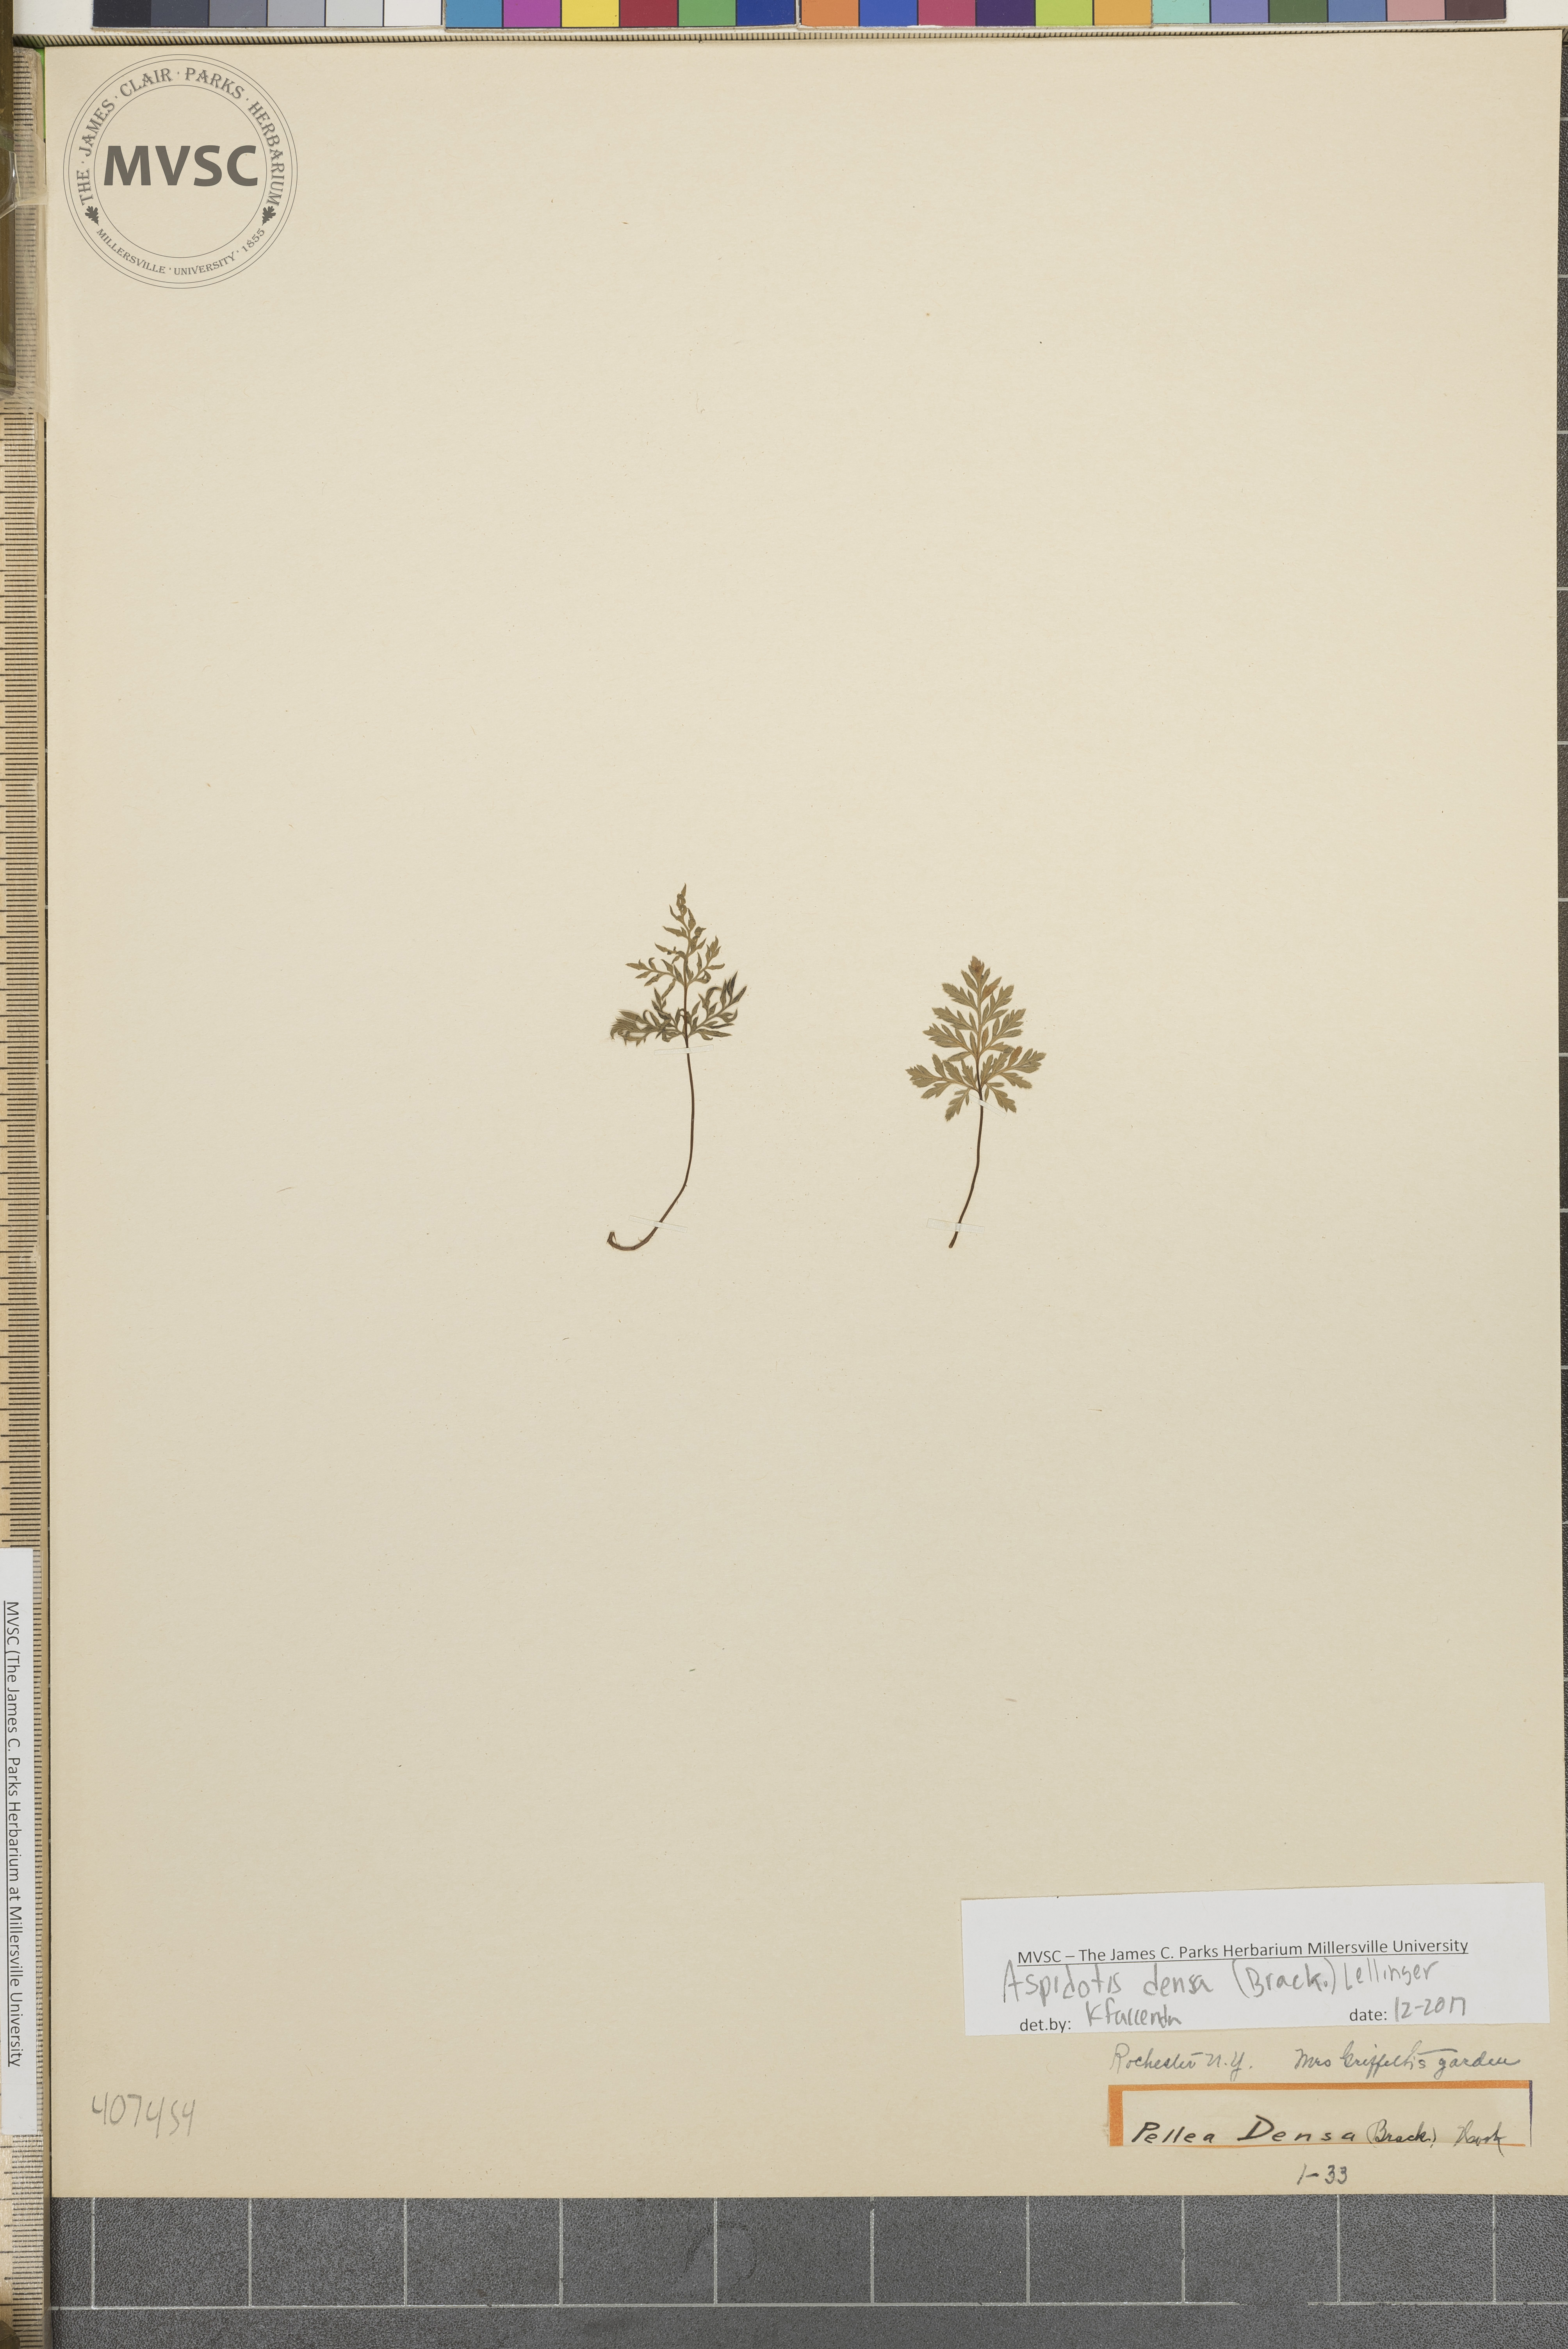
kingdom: Plantae
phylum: Tracheophyta
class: Polypodiopsida
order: Polypodiales
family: Pteridaceae
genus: Aspidotis
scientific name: Aspidotis densa
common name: Indian's dream
